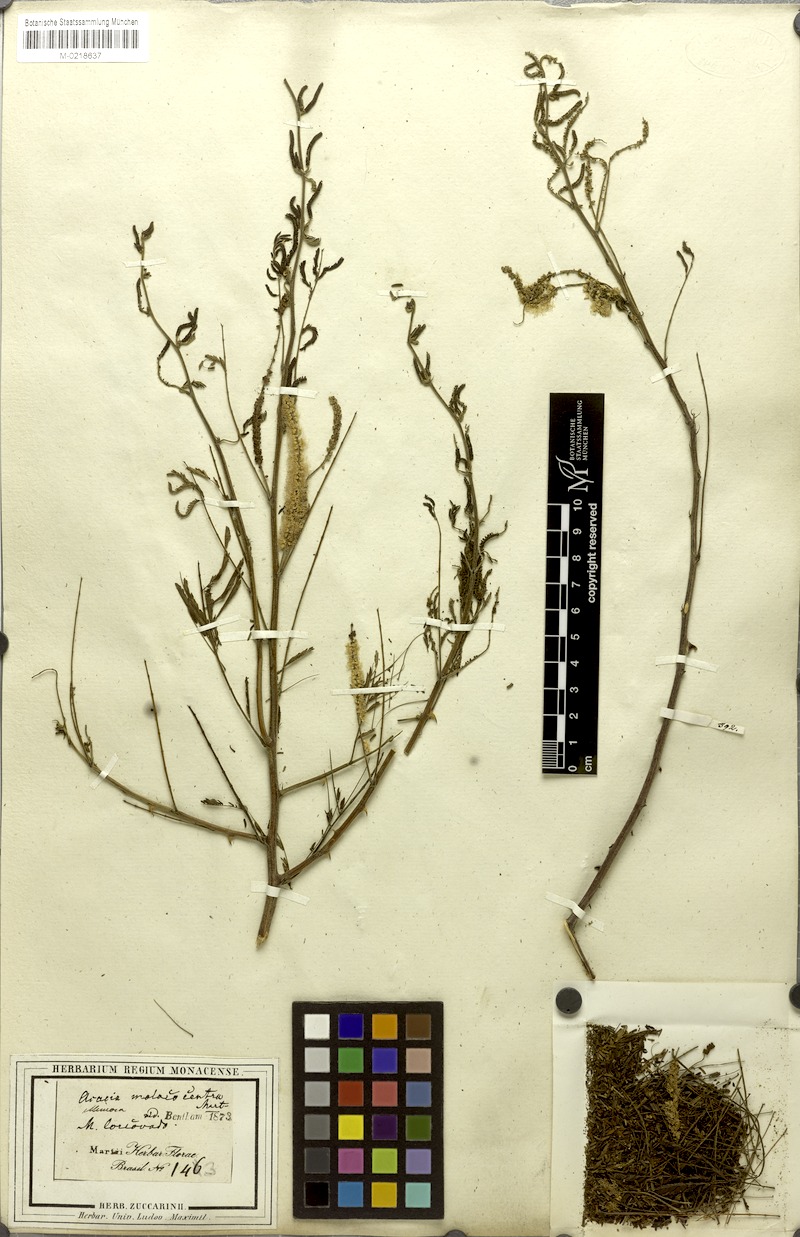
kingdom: Plantae
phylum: Tracheophyta
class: Magnoliopsida
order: Fabales
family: Fabaceae
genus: Mimosa
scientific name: Mimosa arenosa
